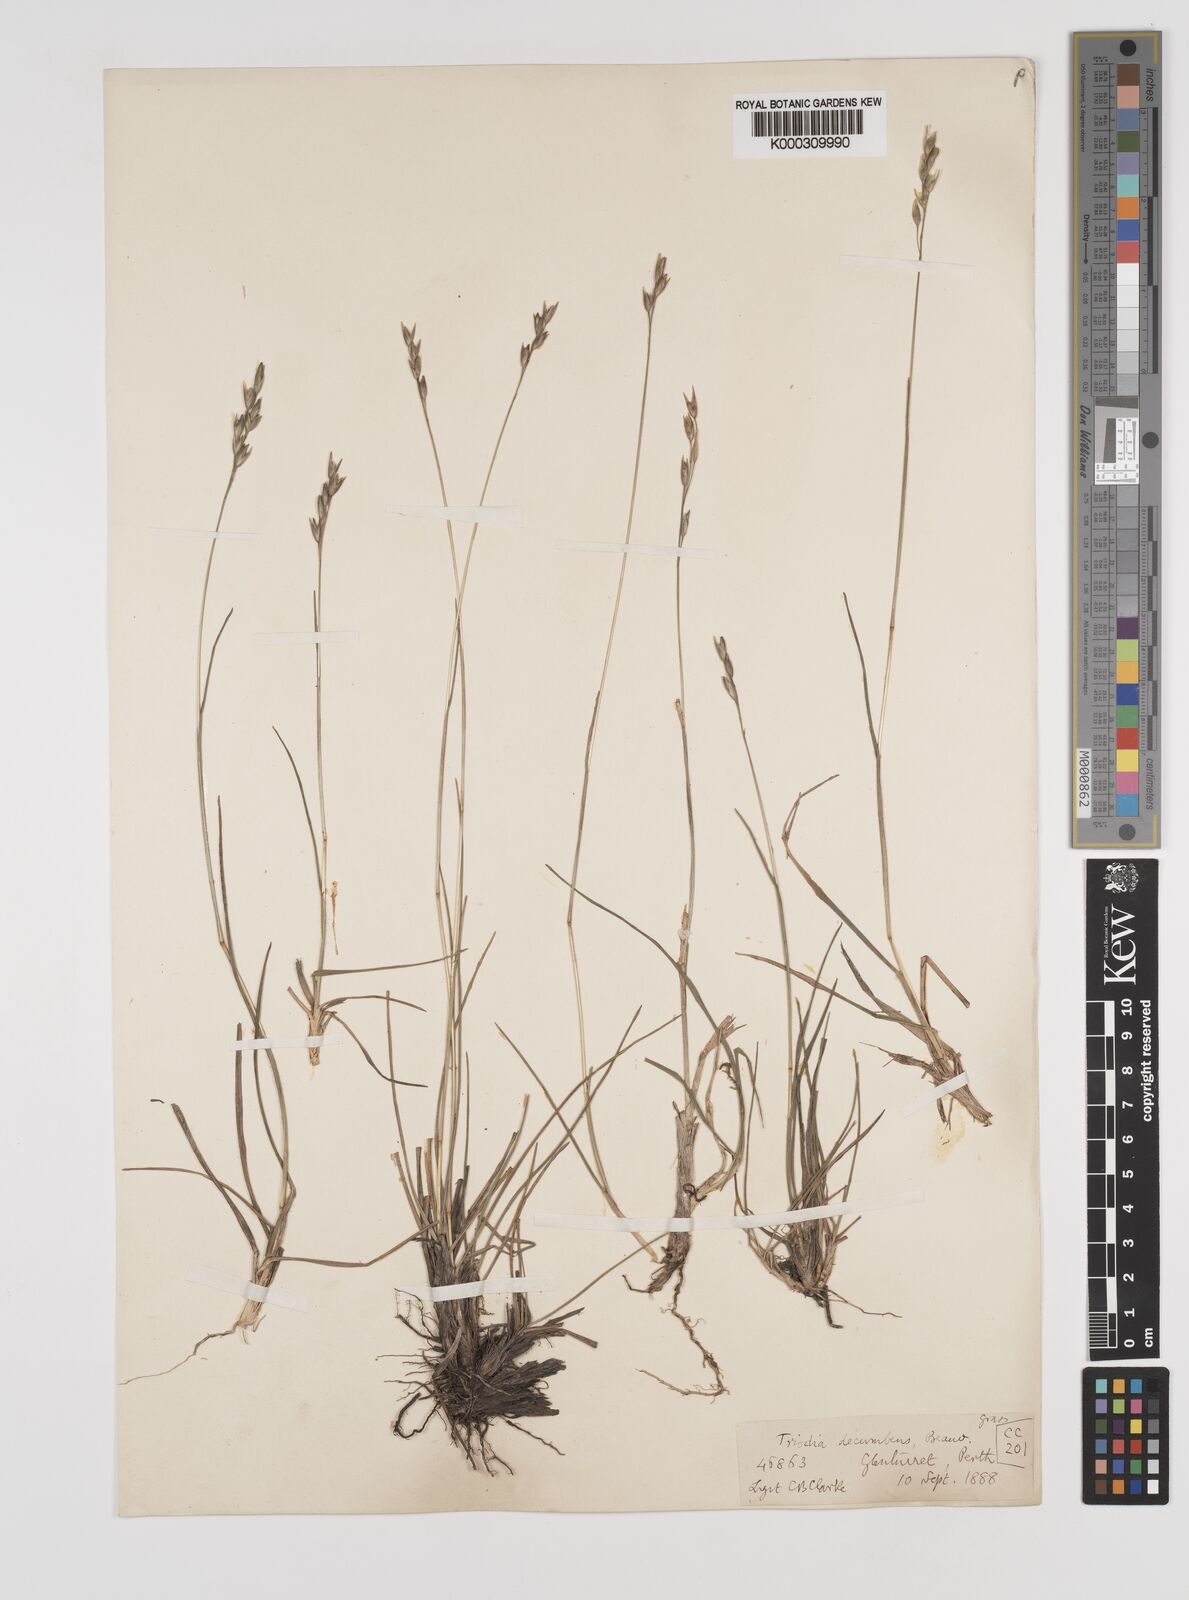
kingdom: Plantae
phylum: Tracheophyta
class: Liliopsida
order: Poales
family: Poaceae
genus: Danthonia
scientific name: Danthonia decumbens
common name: Common heathgrass
